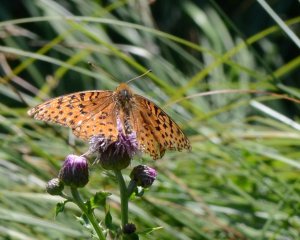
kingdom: Animalia
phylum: Arthropoda
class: Insecta
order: Lepidoptera
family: Nymphalidae
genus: Speyeria
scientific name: Speyeria aphrodite
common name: Aphrodite Fritillary
